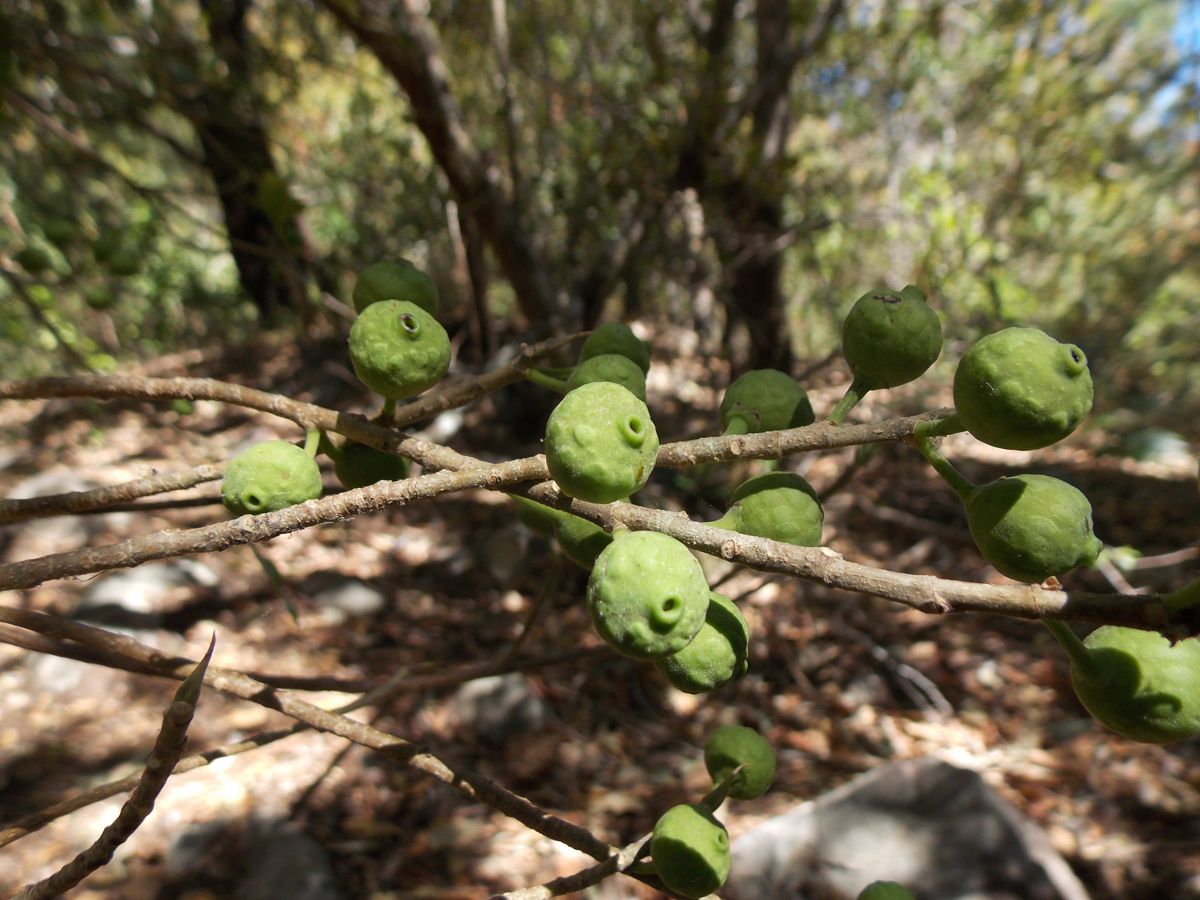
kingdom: Plantae
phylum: Tracheophyta
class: Magnoliopsida
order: Rosales
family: Moraceae
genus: Ficus
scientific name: Ficus pertusa
